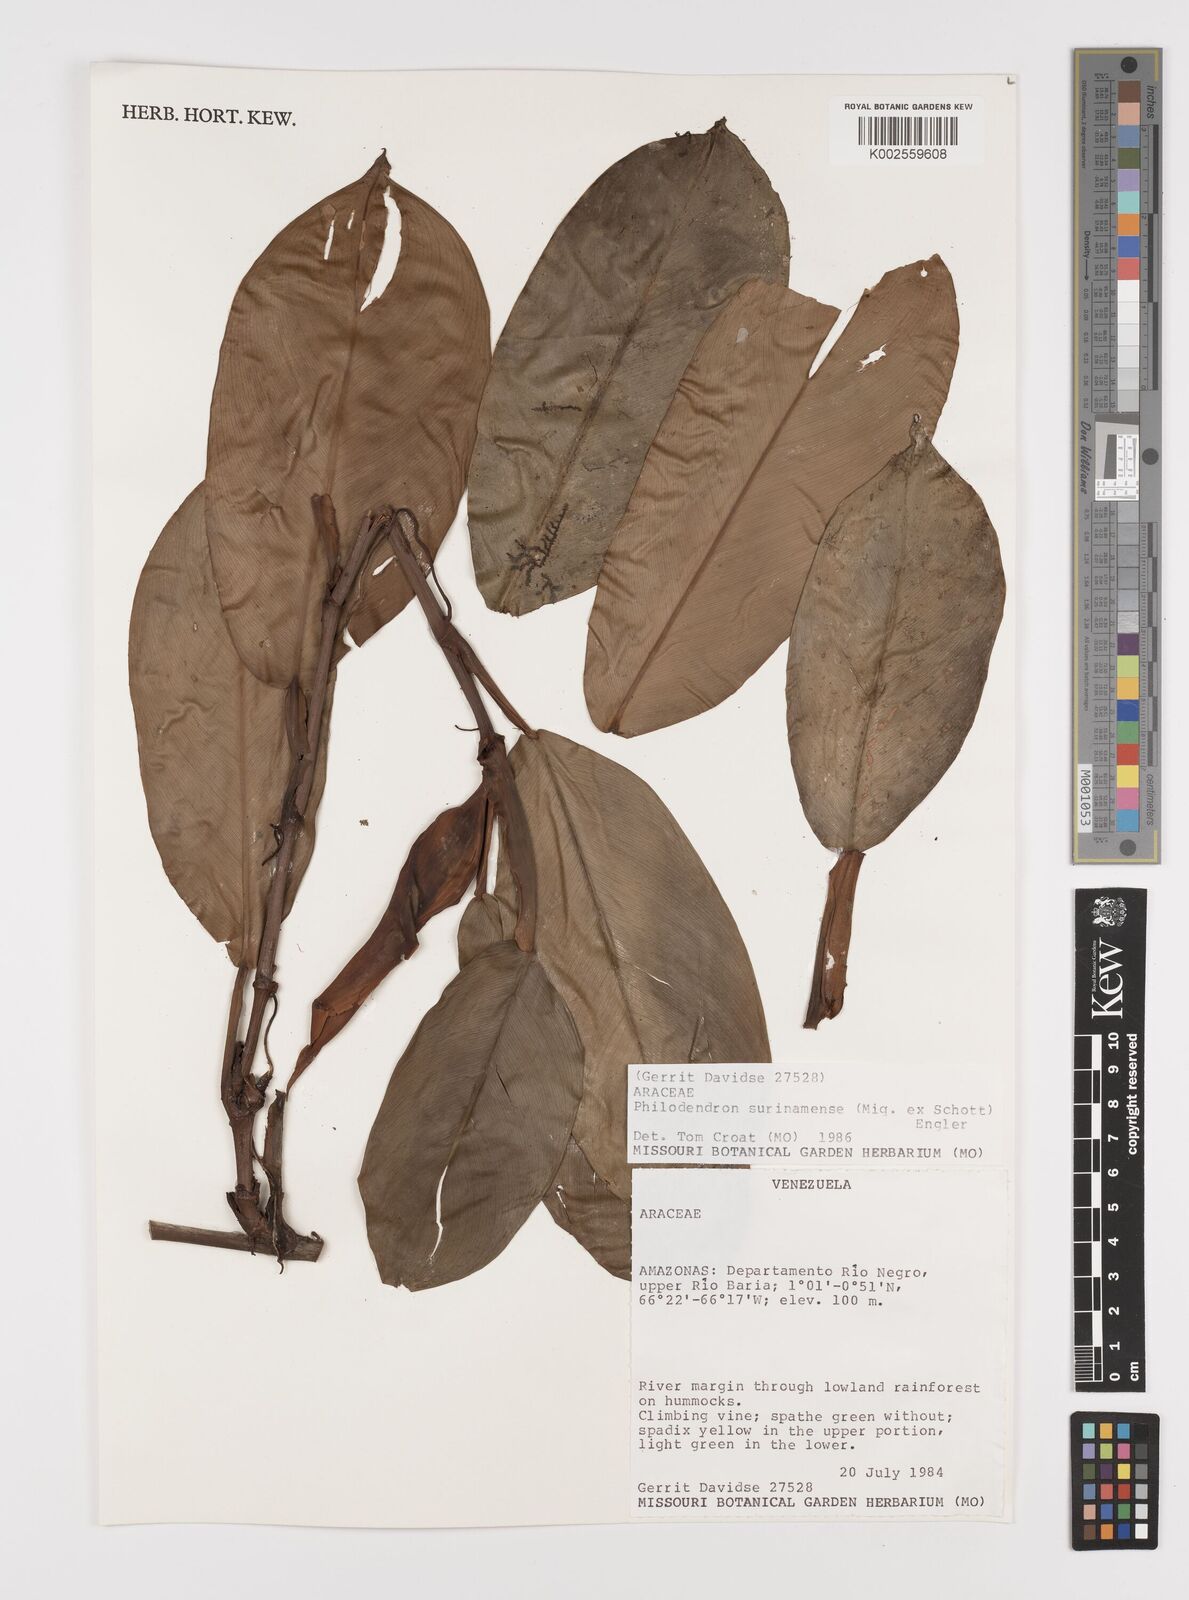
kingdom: Plantae
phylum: Tracheophyta
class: Liliopsida
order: Alismatales
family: Araceae
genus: Philodendron
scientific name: Philodendron surinamense
